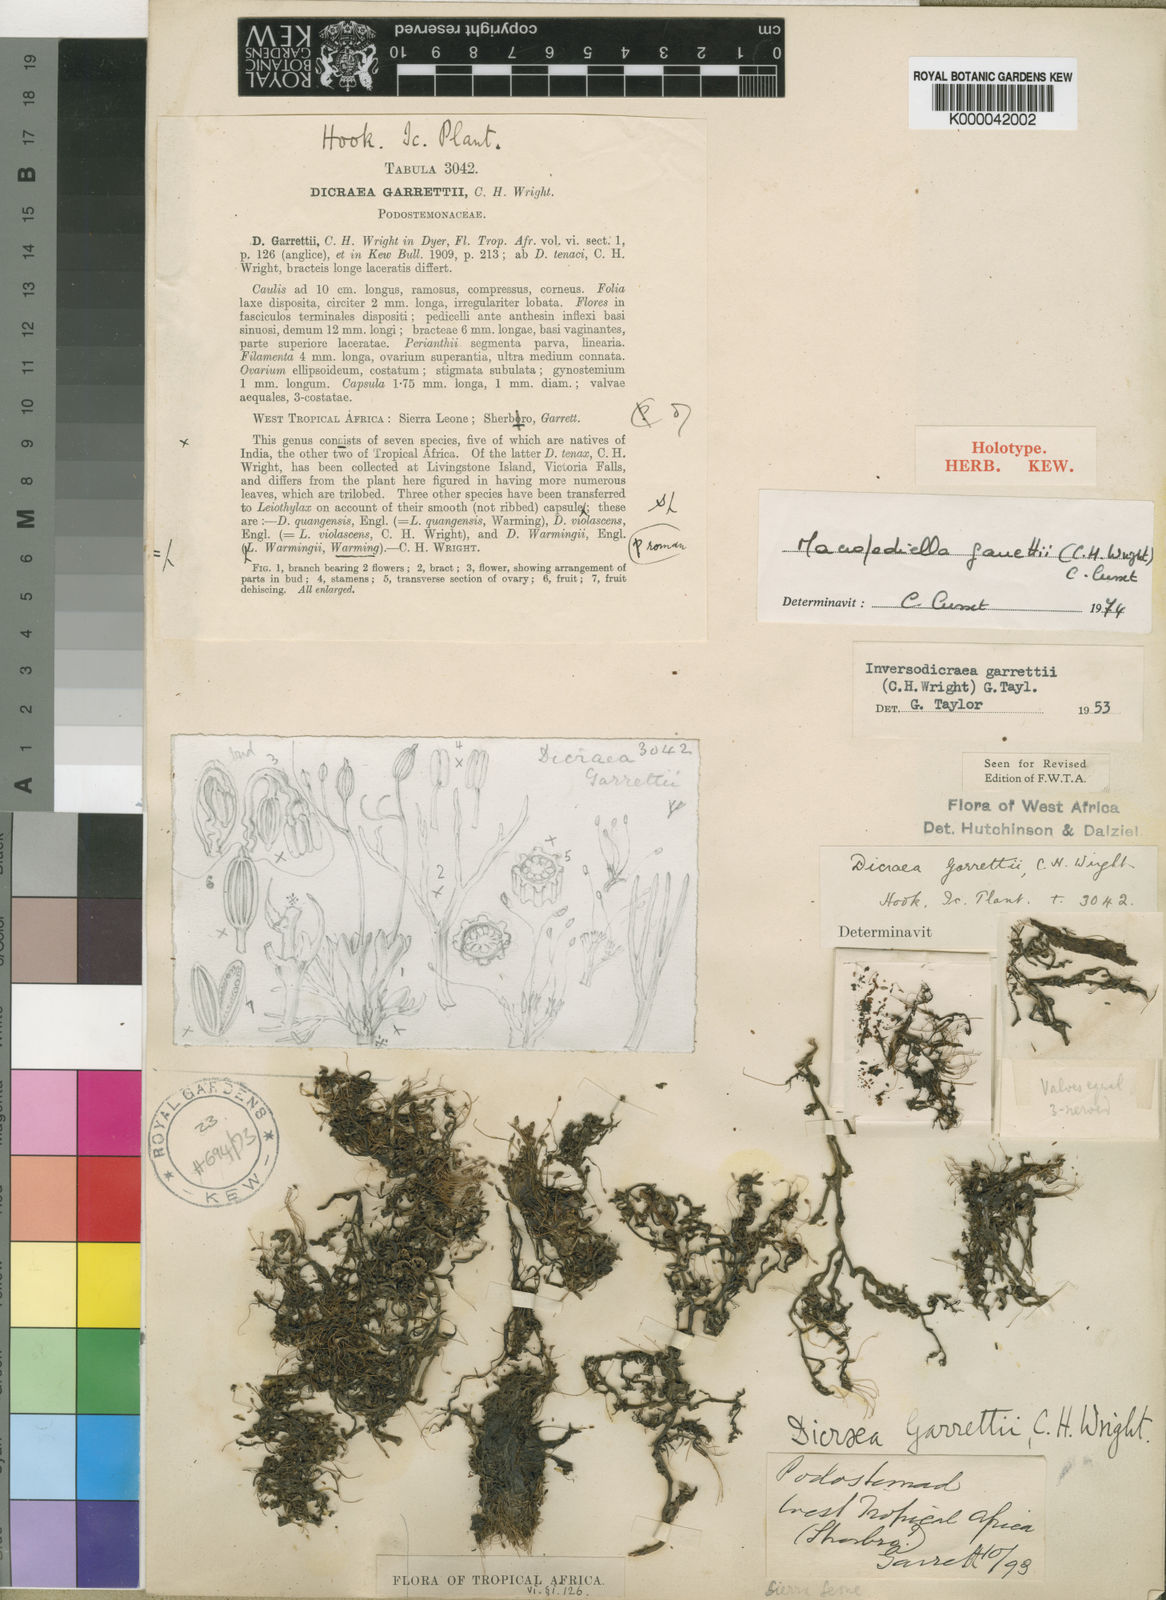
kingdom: Plantae
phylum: Tracheophyta
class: Magnoliopsida
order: Malpighiales
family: Podostemaceae
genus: Macropodiella
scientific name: Macropodiella garrettii
